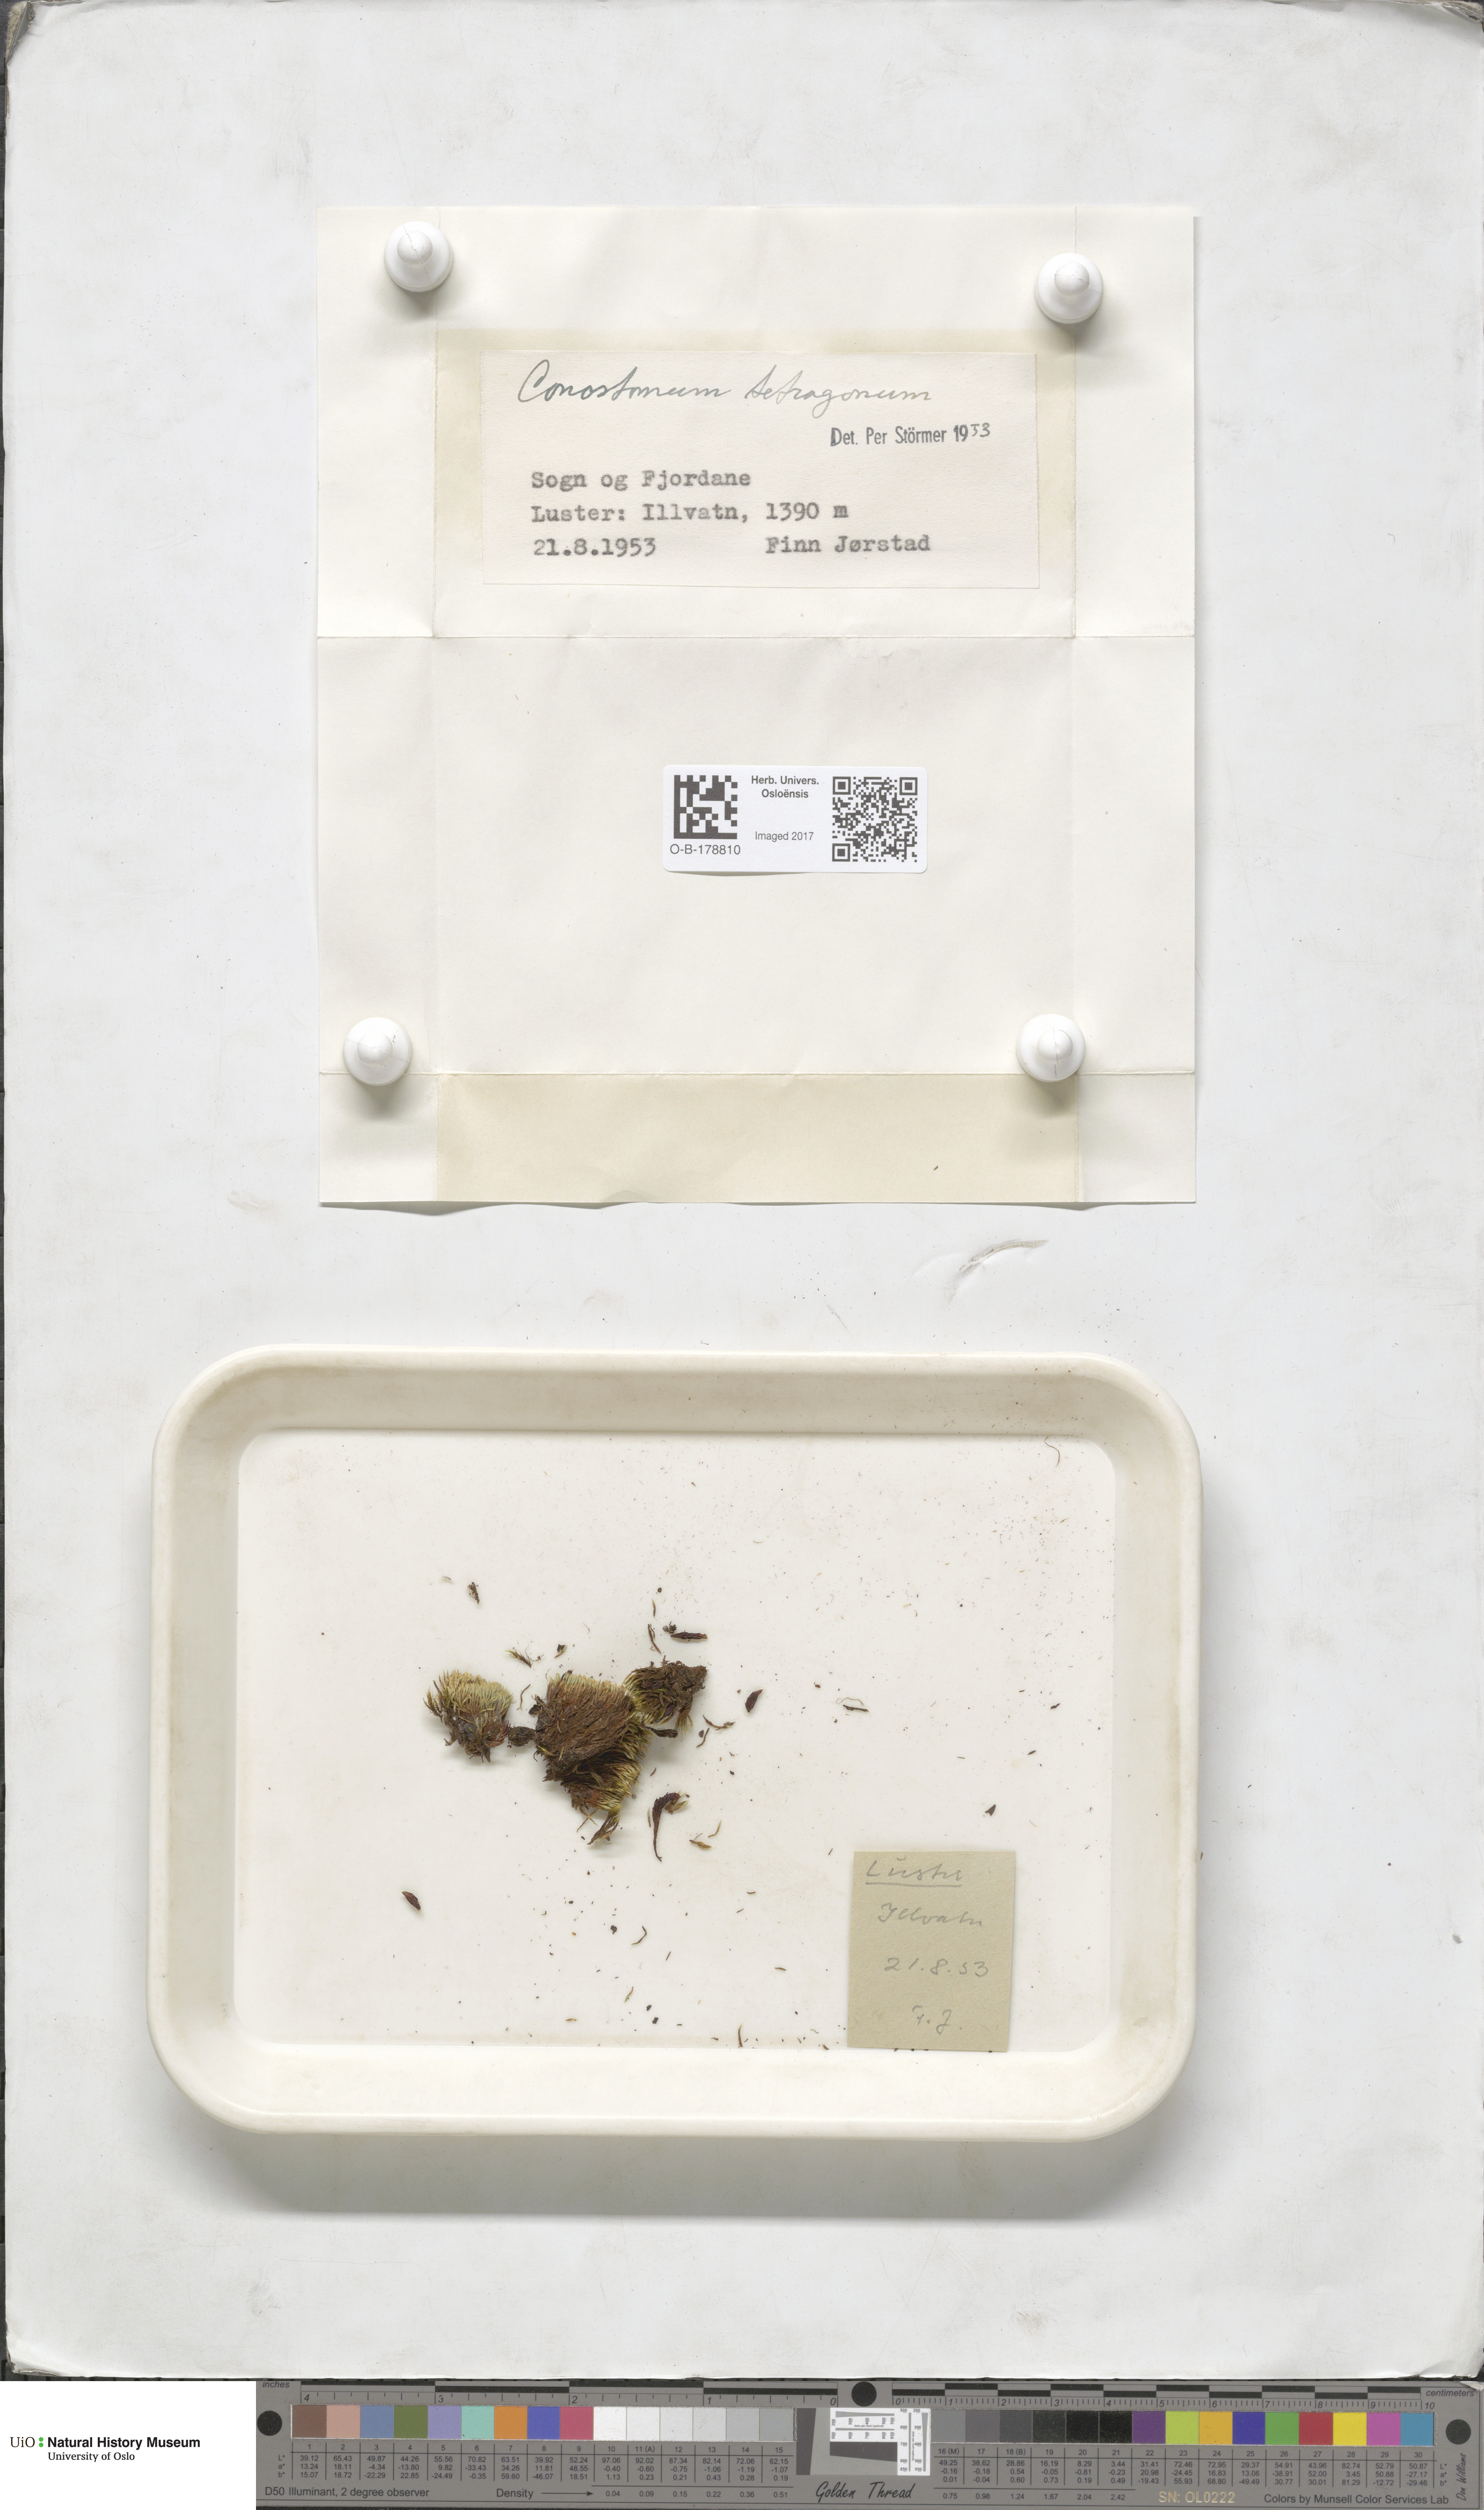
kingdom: Plantae
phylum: Bryophyta
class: Bryopsida
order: Bartramiales
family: Bartramiaceae
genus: Conostomum
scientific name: Conostomum tetragonum
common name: Helmet moss
